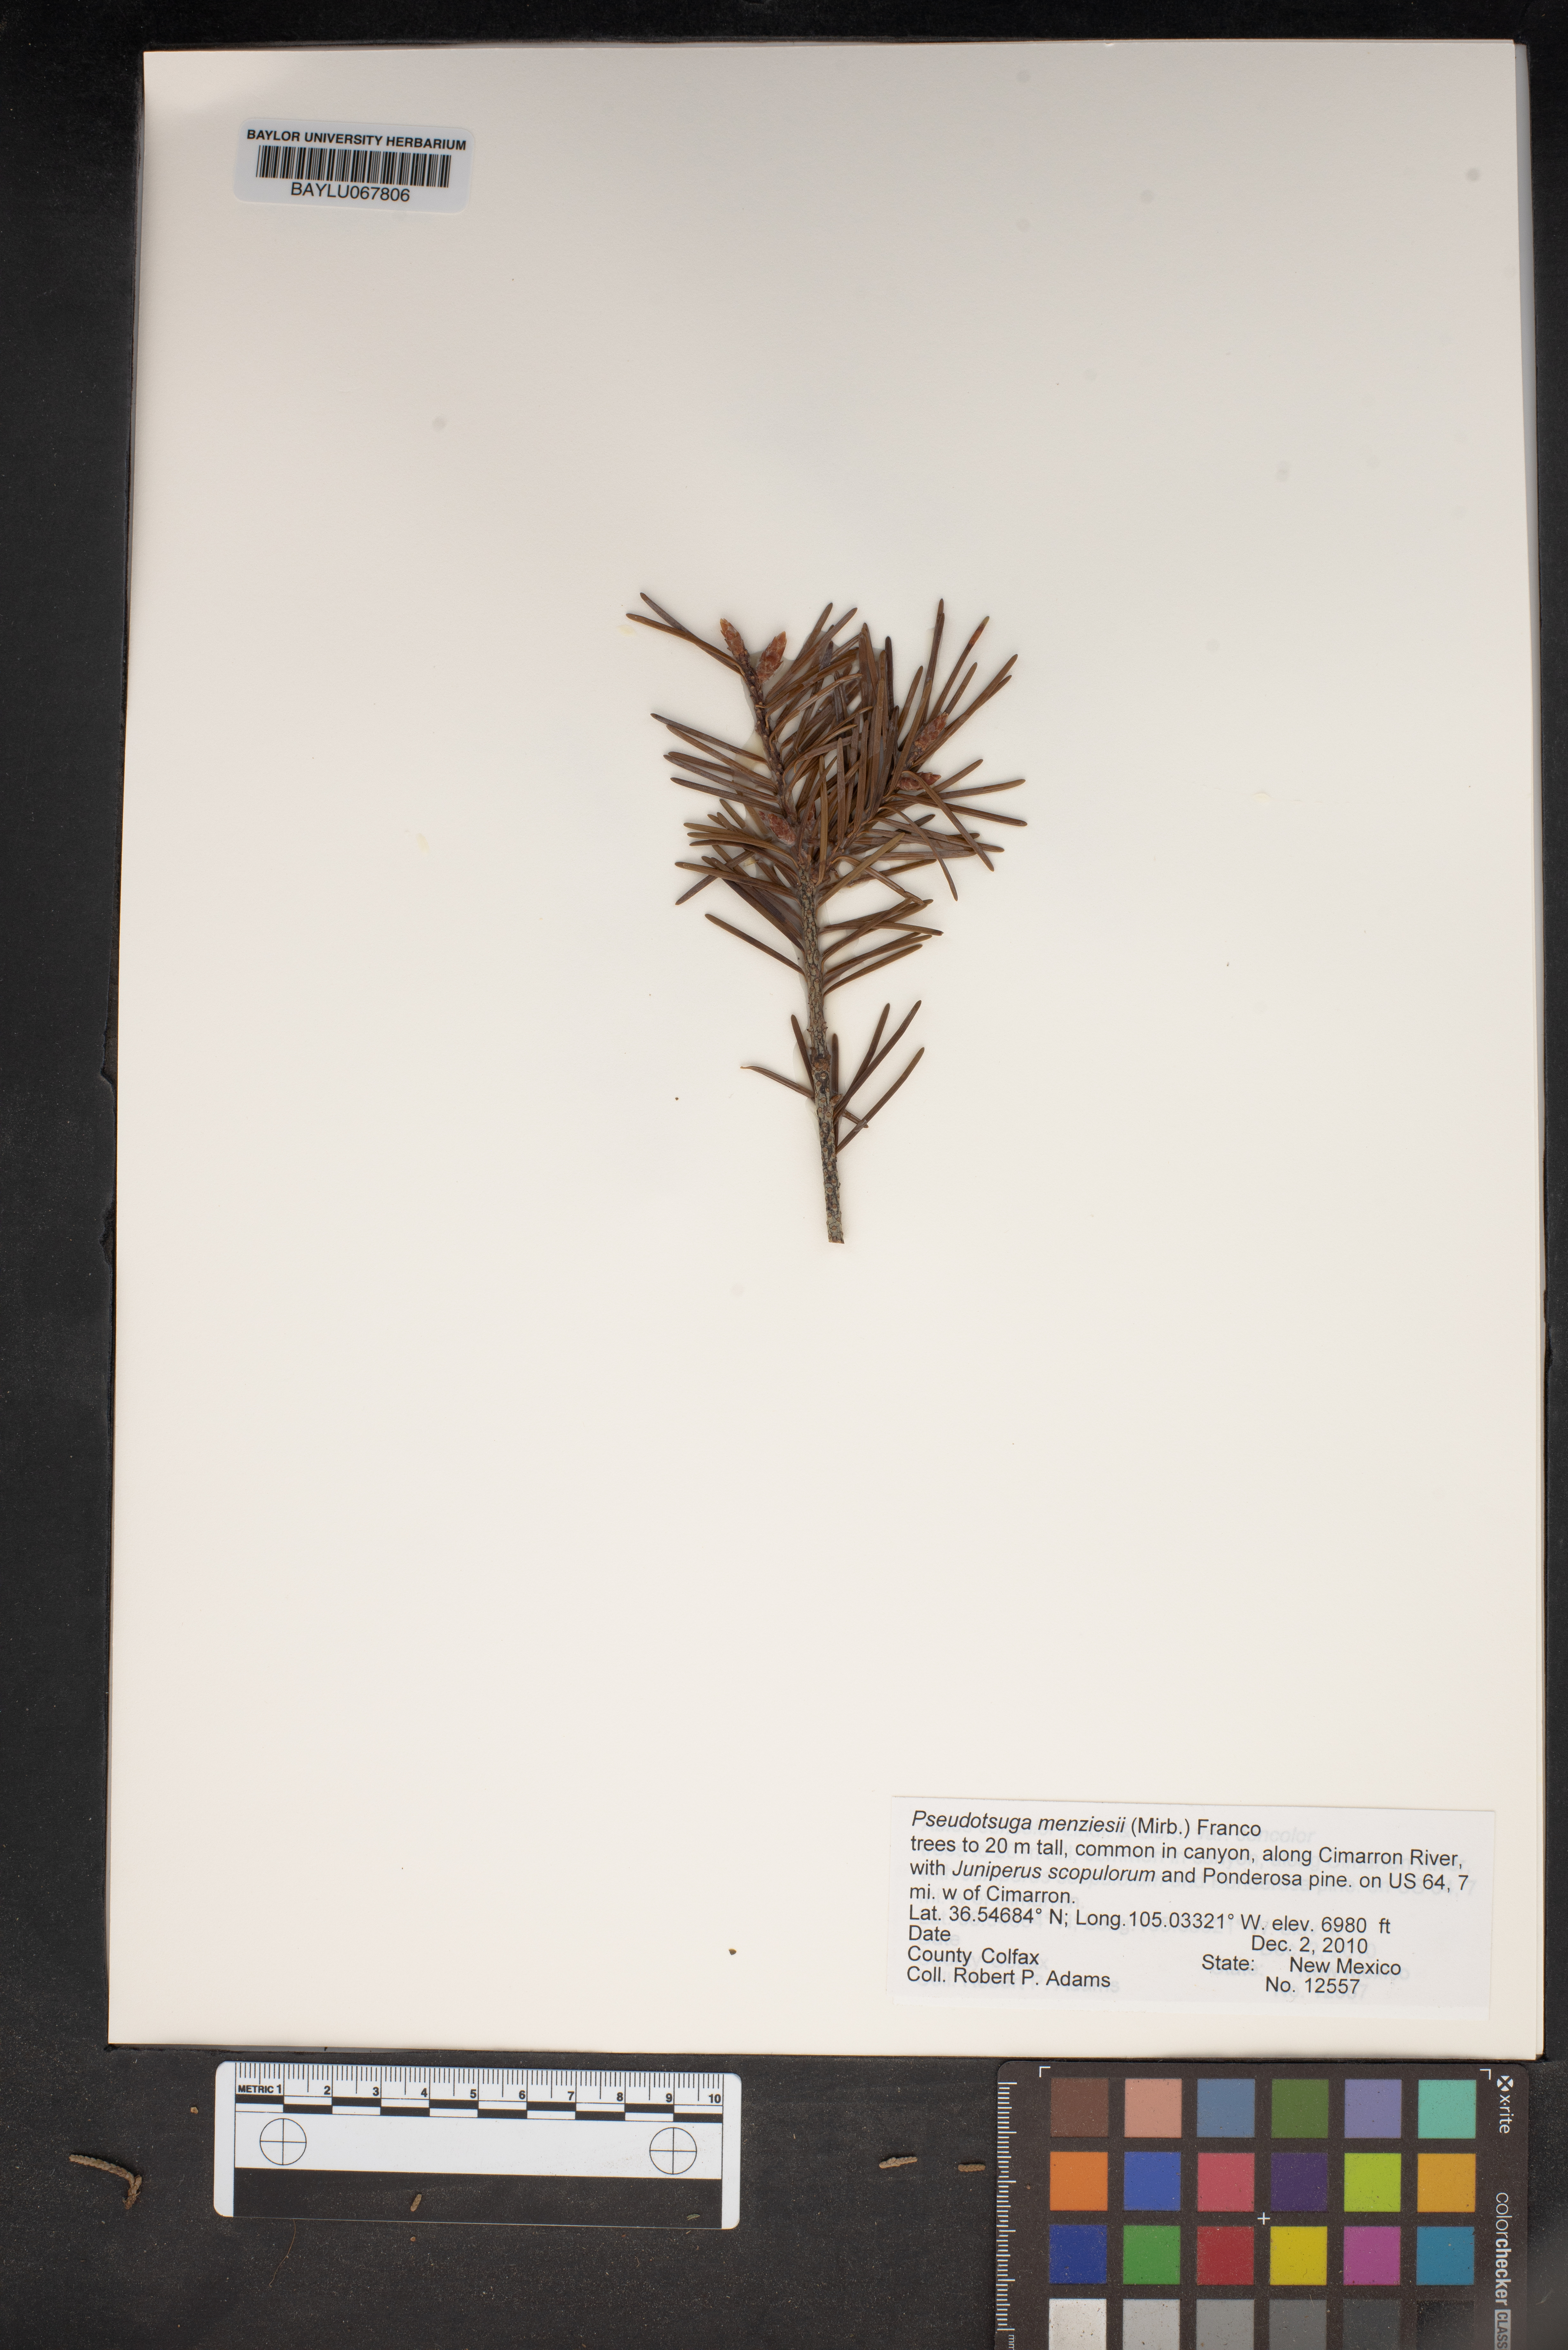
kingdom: Plantae
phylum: Tracheophyta
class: Pinopsida
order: Pinales
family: Pinaceae
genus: Pseudotsuga
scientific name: Pseudotsuga menziesii
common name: Douglas fir
